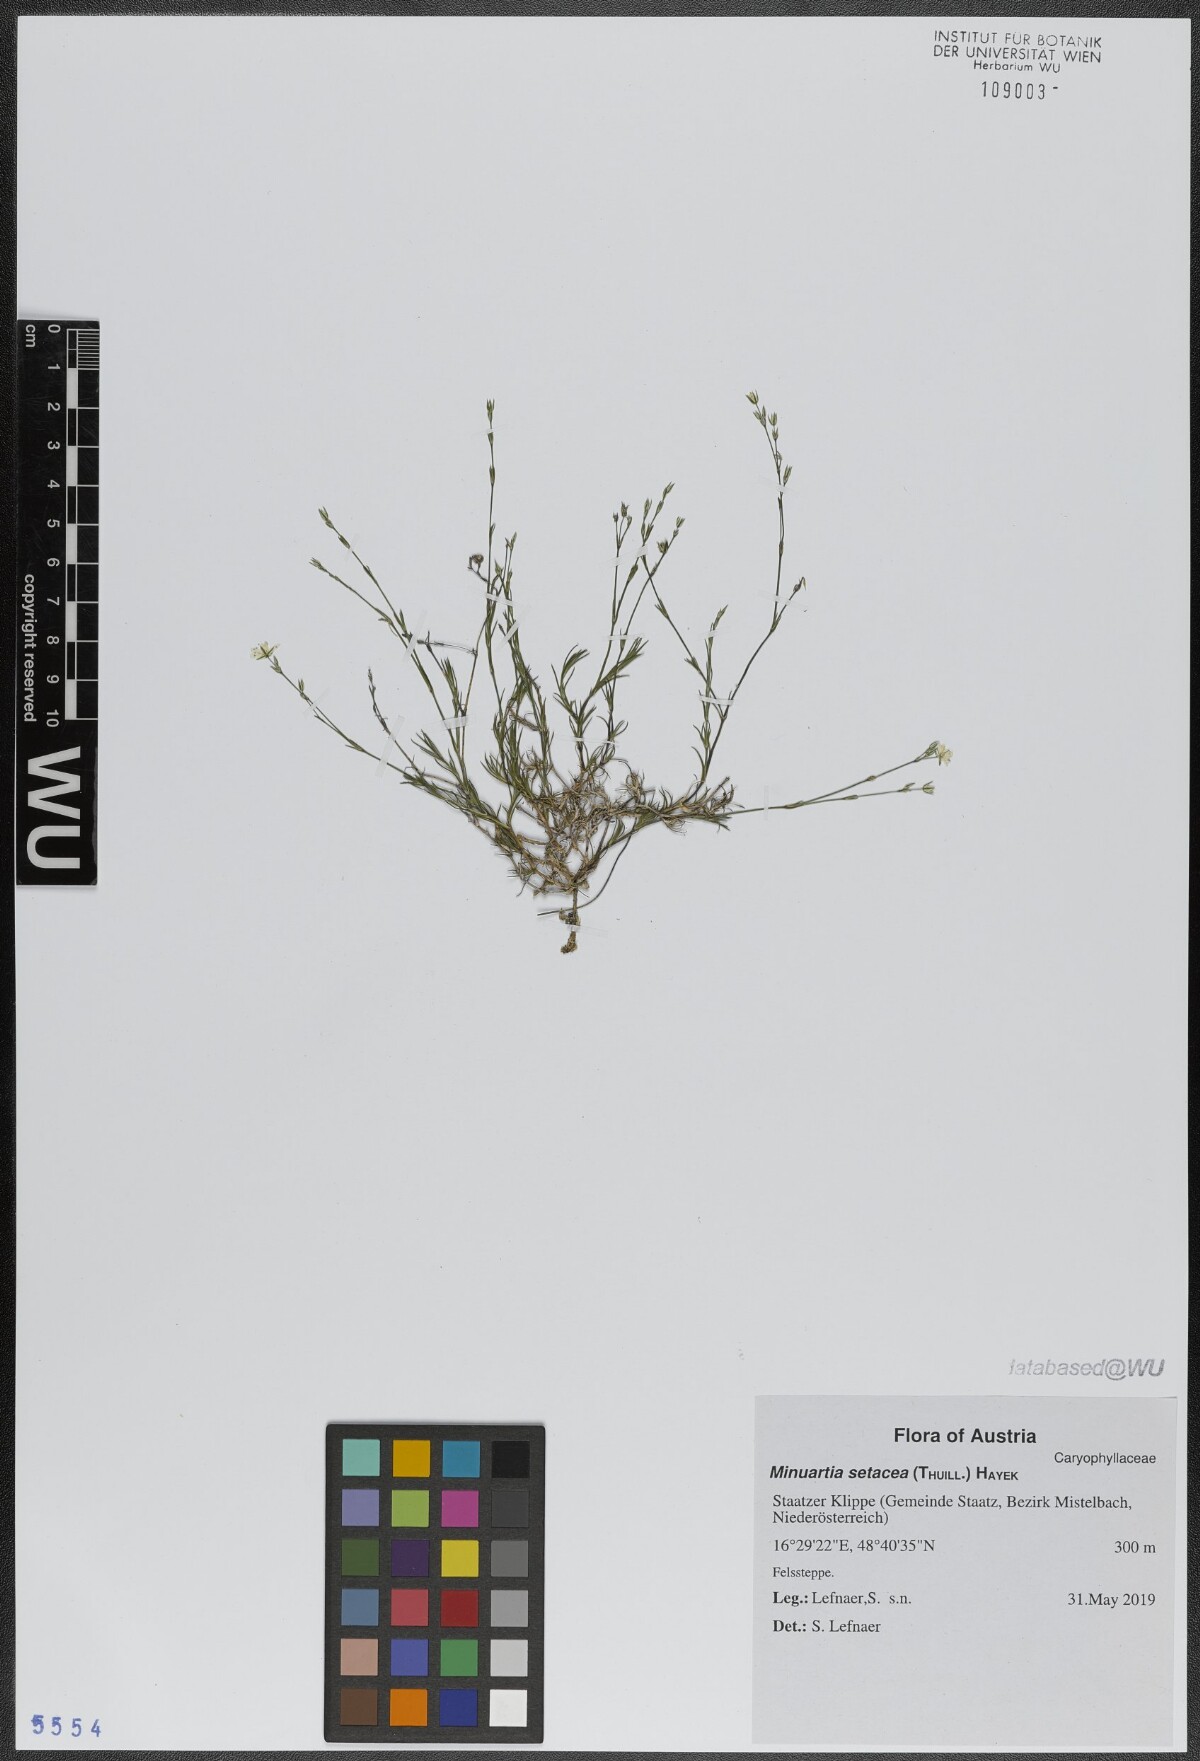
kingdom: Plantae
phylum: Tracheophyta
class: Magnoliopsida
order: Caryophyllales
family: Caryophyllaceae
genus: Minuartia
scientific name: Minuartia setacea
